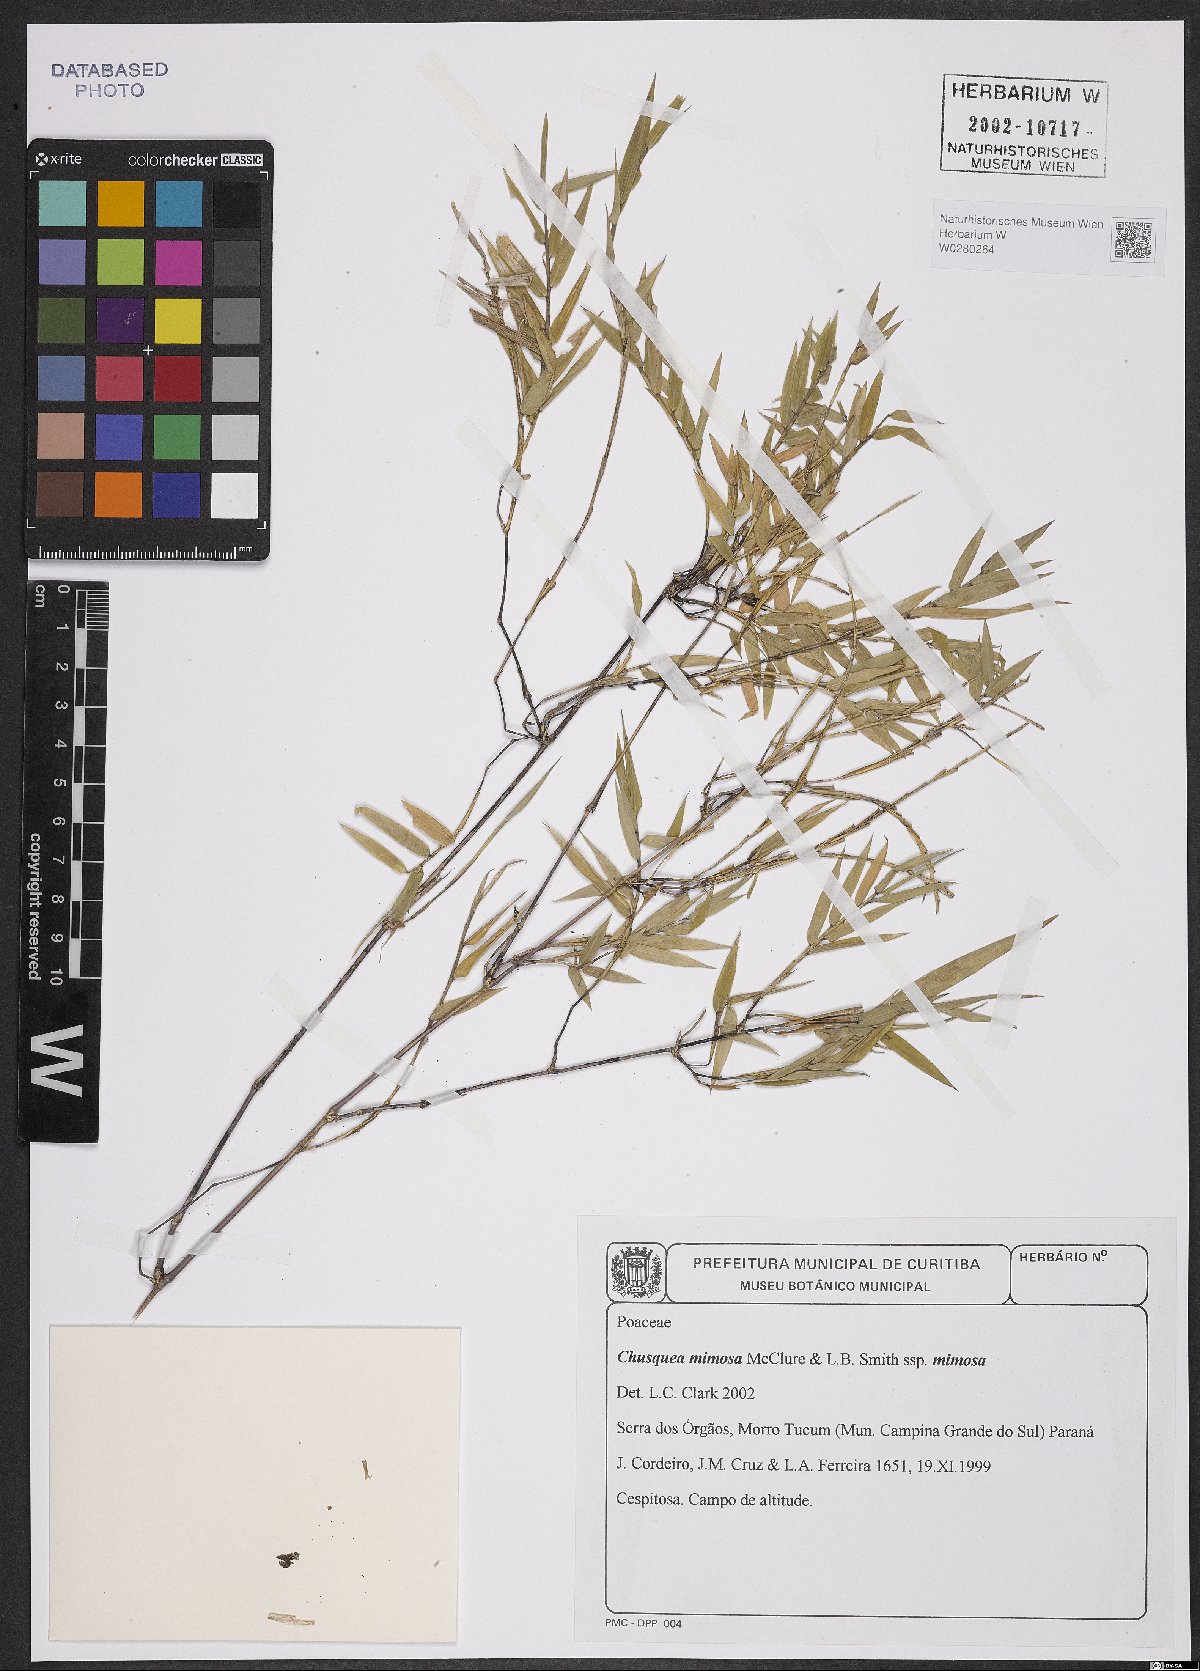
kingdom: Plantae
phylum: Tracheophyta
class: Liliopsida
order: Poales
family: Poaceae
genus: Chusquea
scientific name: Chusquea mimosa
